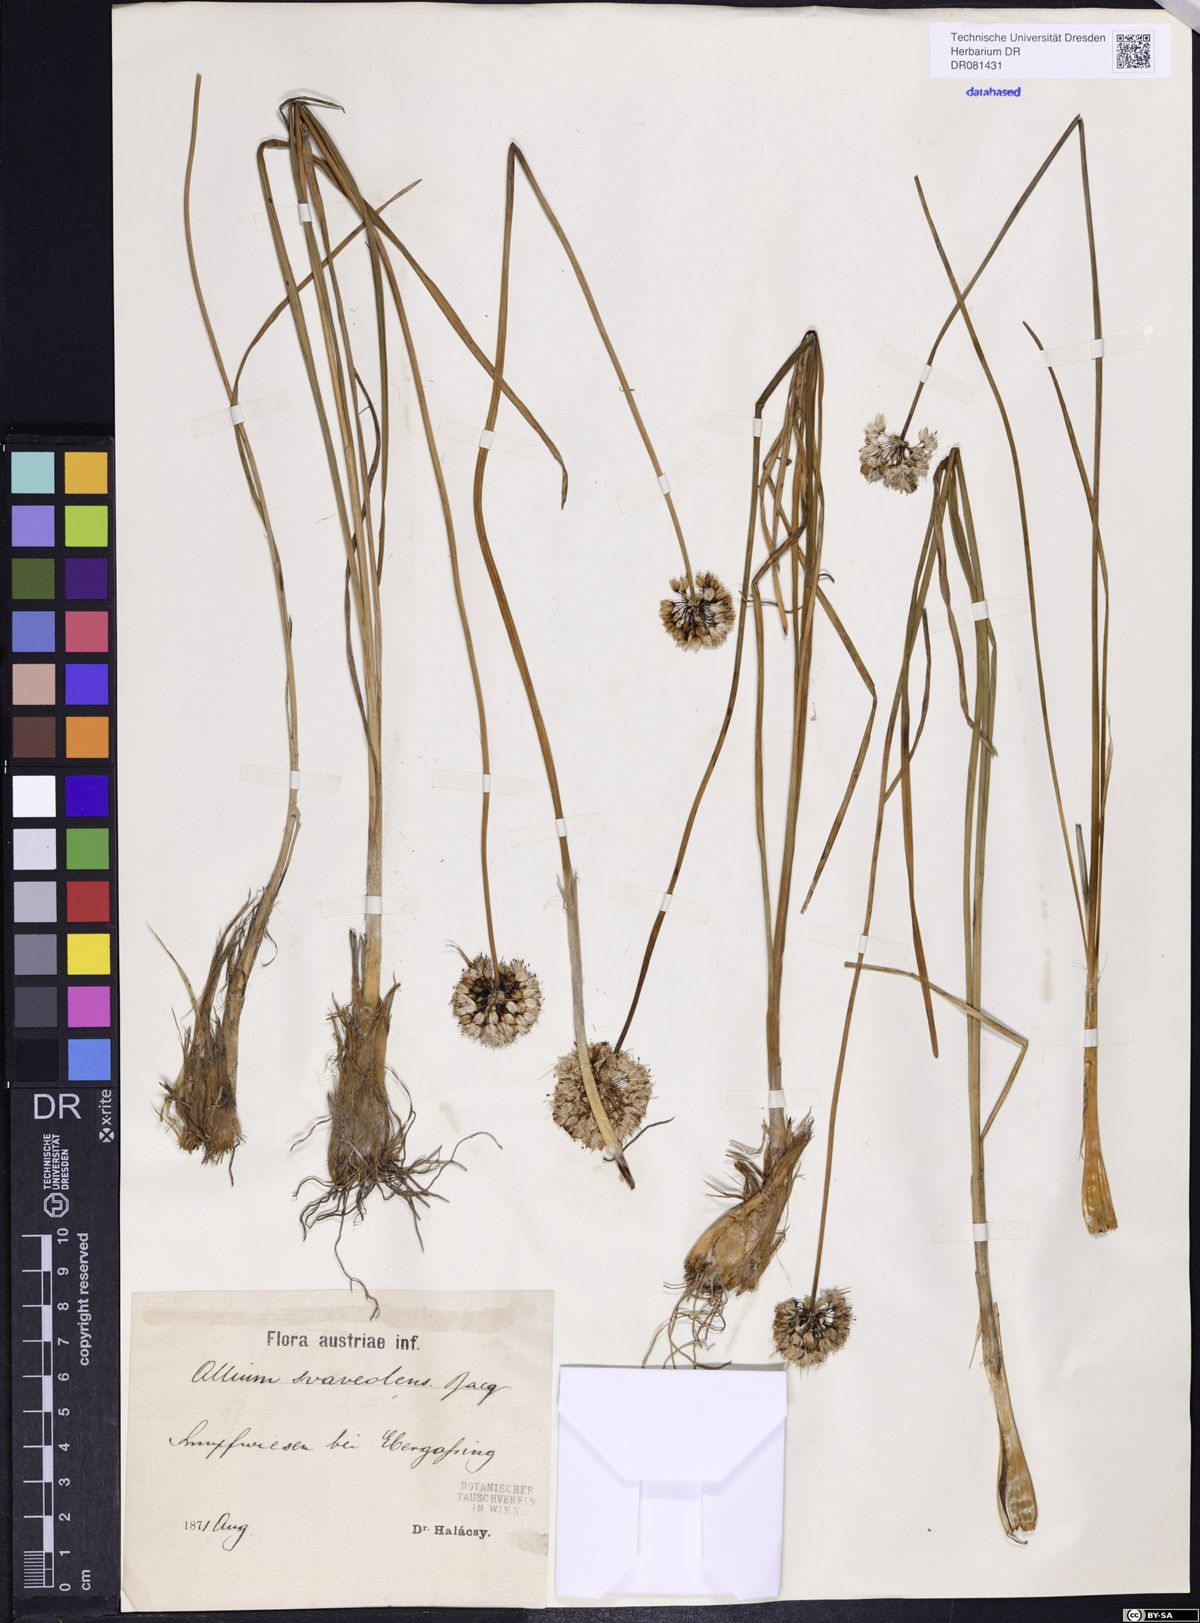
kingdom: Plantae
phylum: Tracheophyta
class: Liliopsida
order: Asparagales
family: Amaryllidaceae
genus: Allium
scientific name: Allium suaveolens
